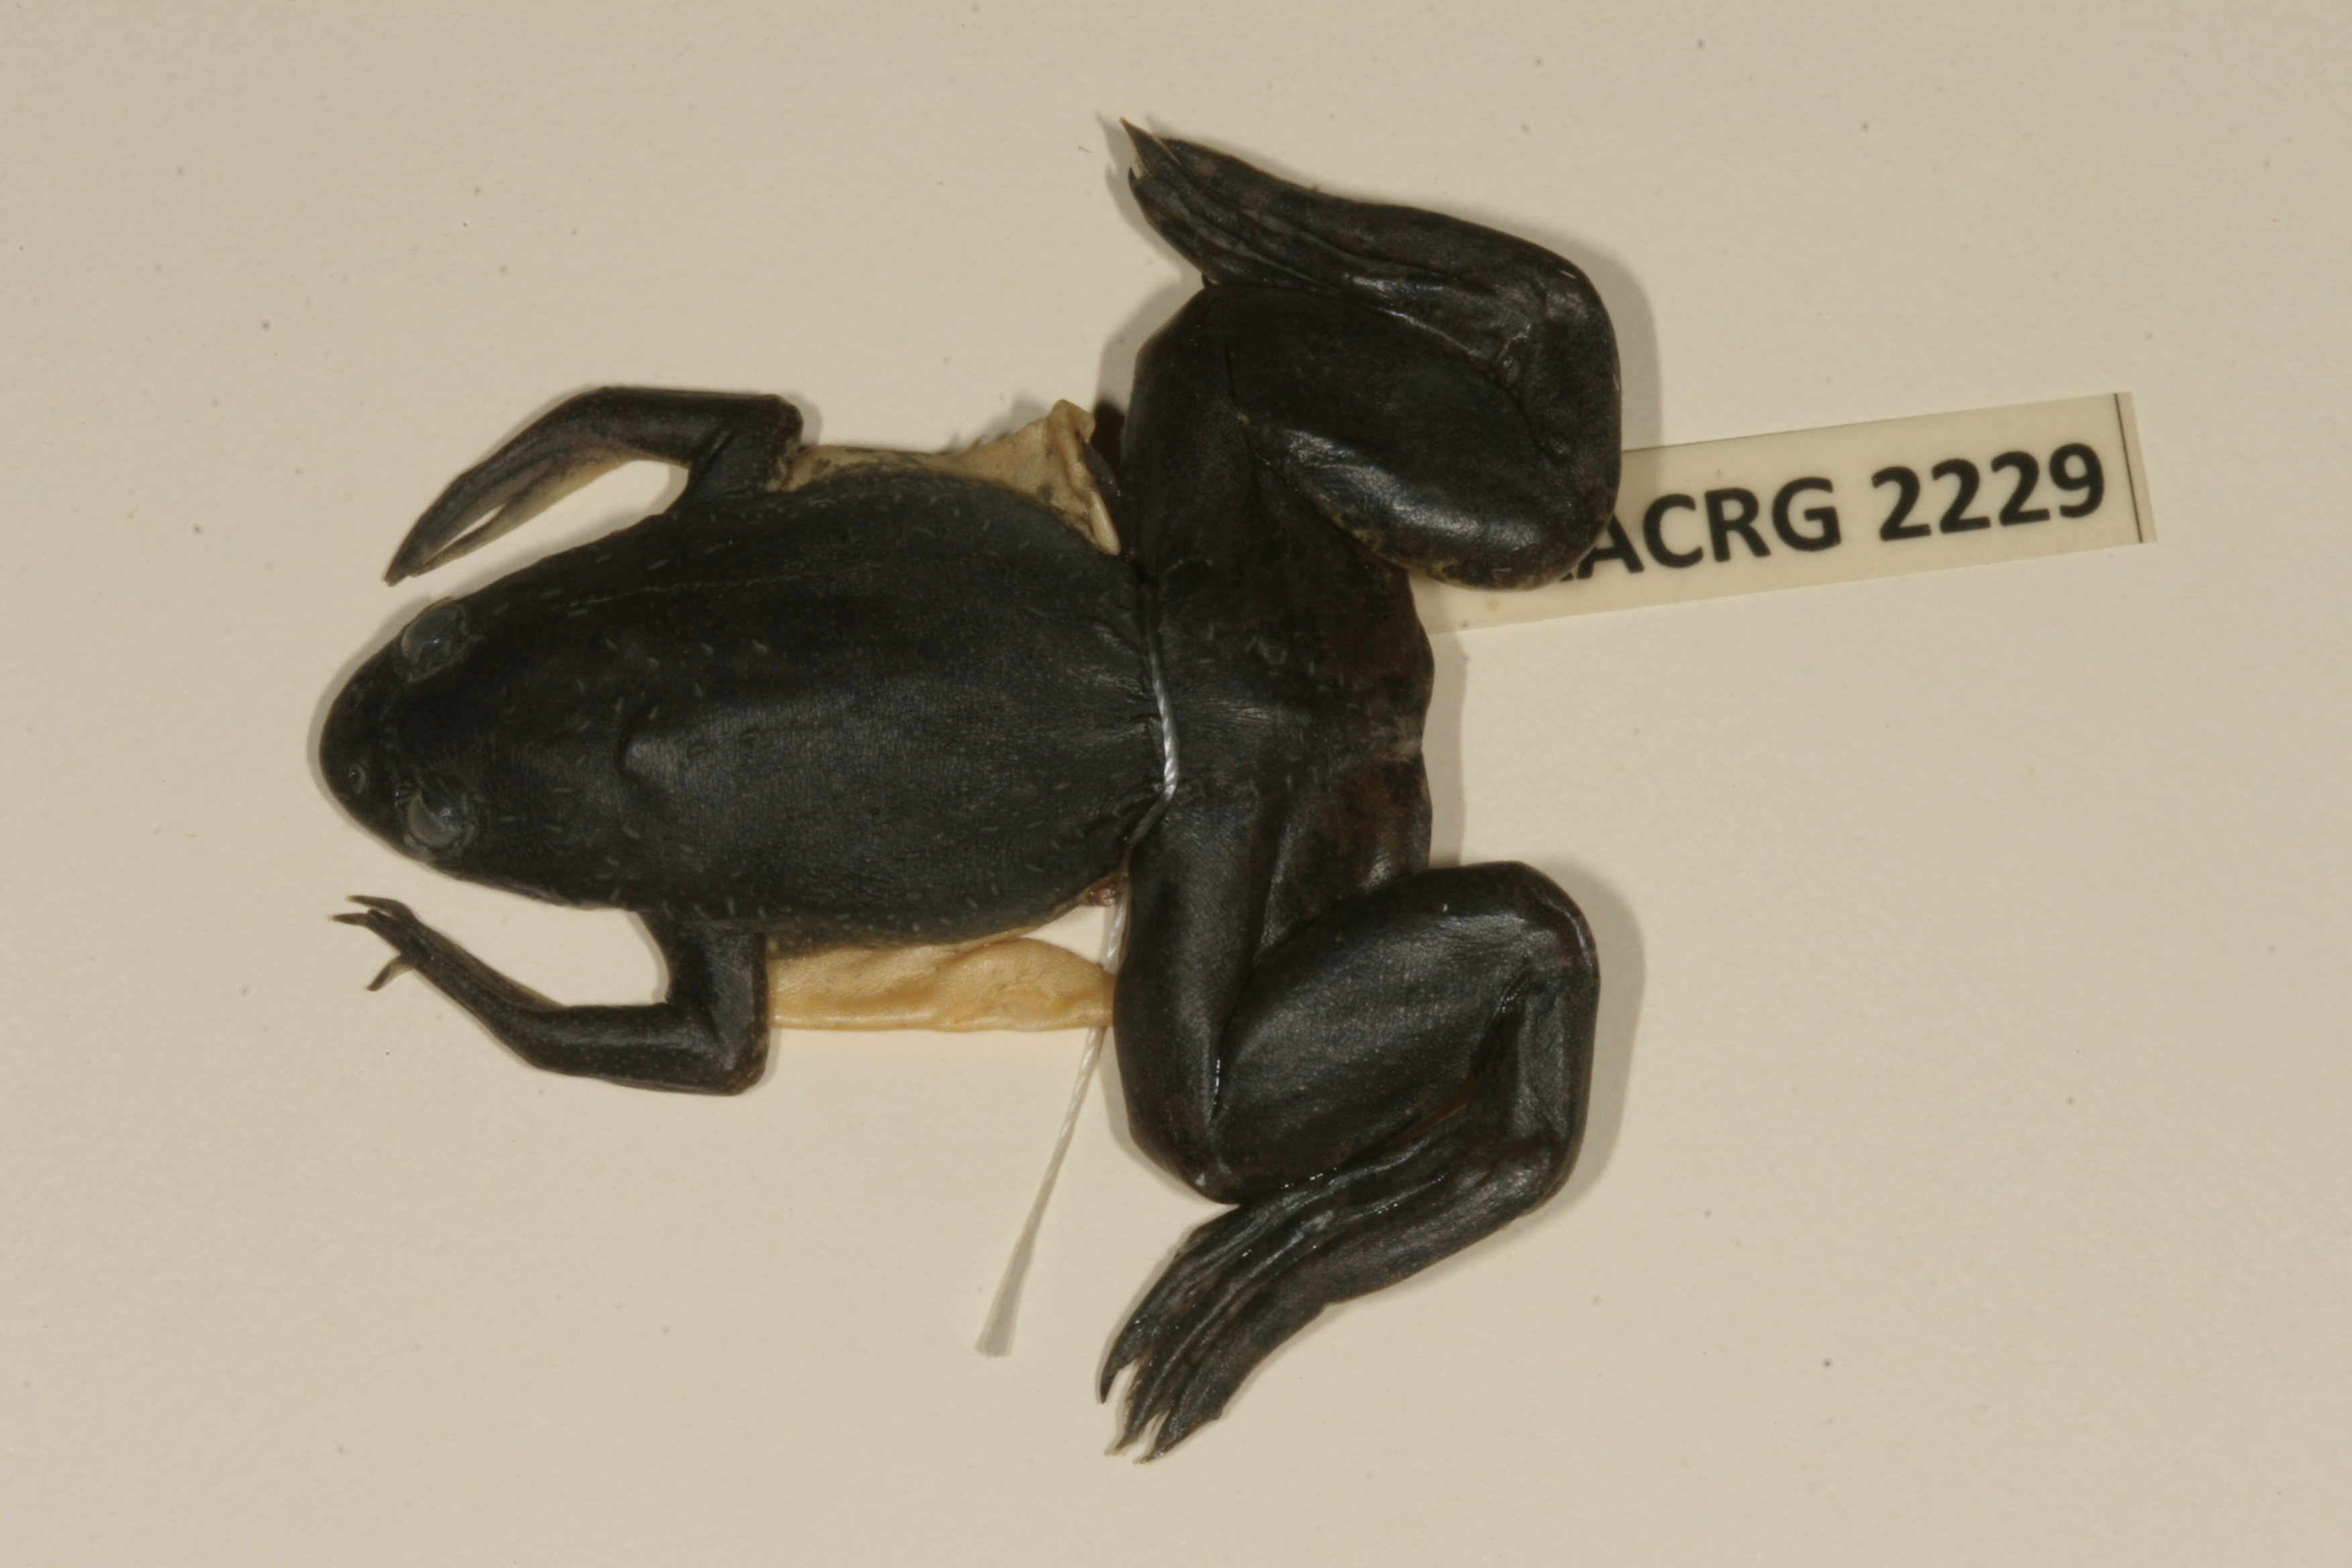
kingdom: Animalia
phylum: Chordata
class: Amphibia
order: Anura
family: Pipidae
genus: Xenopus
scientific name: Xenopus muelleri
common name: Muller's clawed frog
